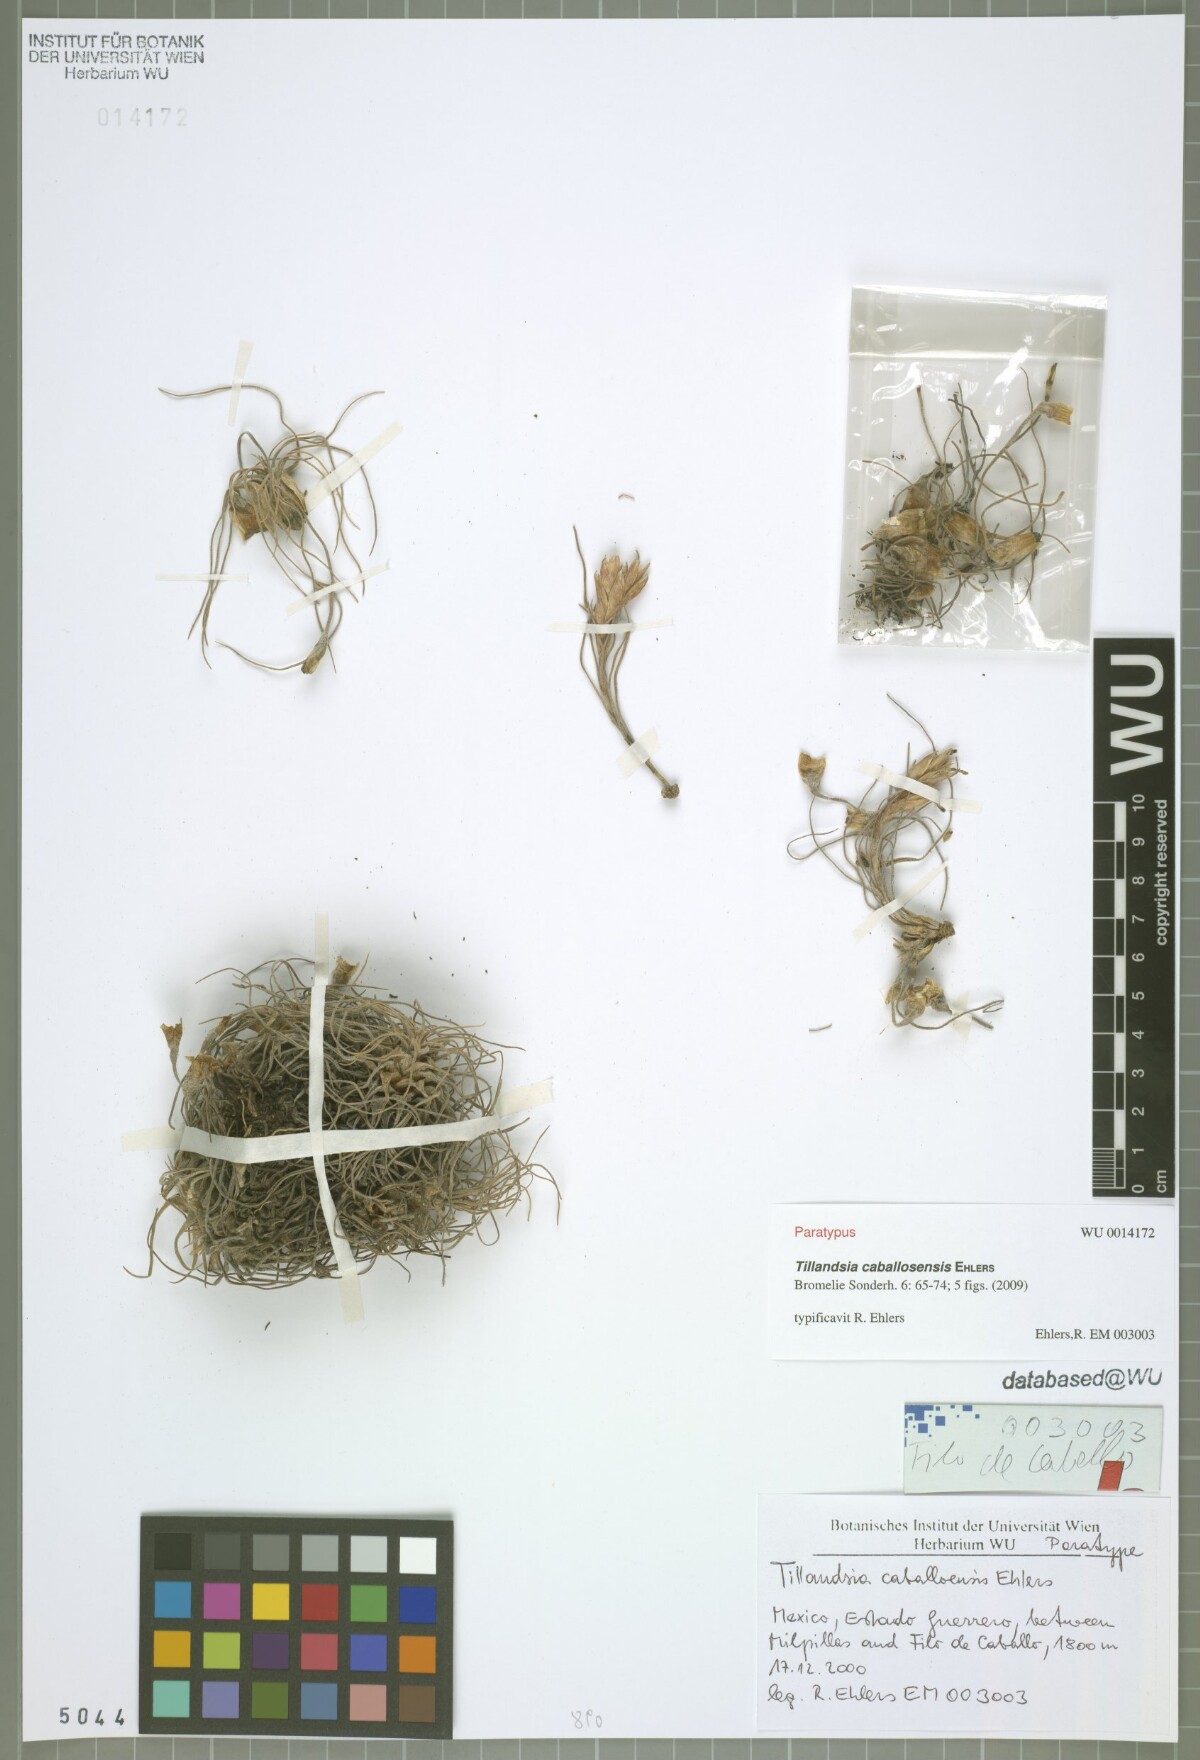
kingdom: Plantae
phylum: Tracheophyta
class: Liliopsida
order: Poales
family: Bromeliaceae
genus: Tillandsia
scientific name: Tillandsia caballosensis
